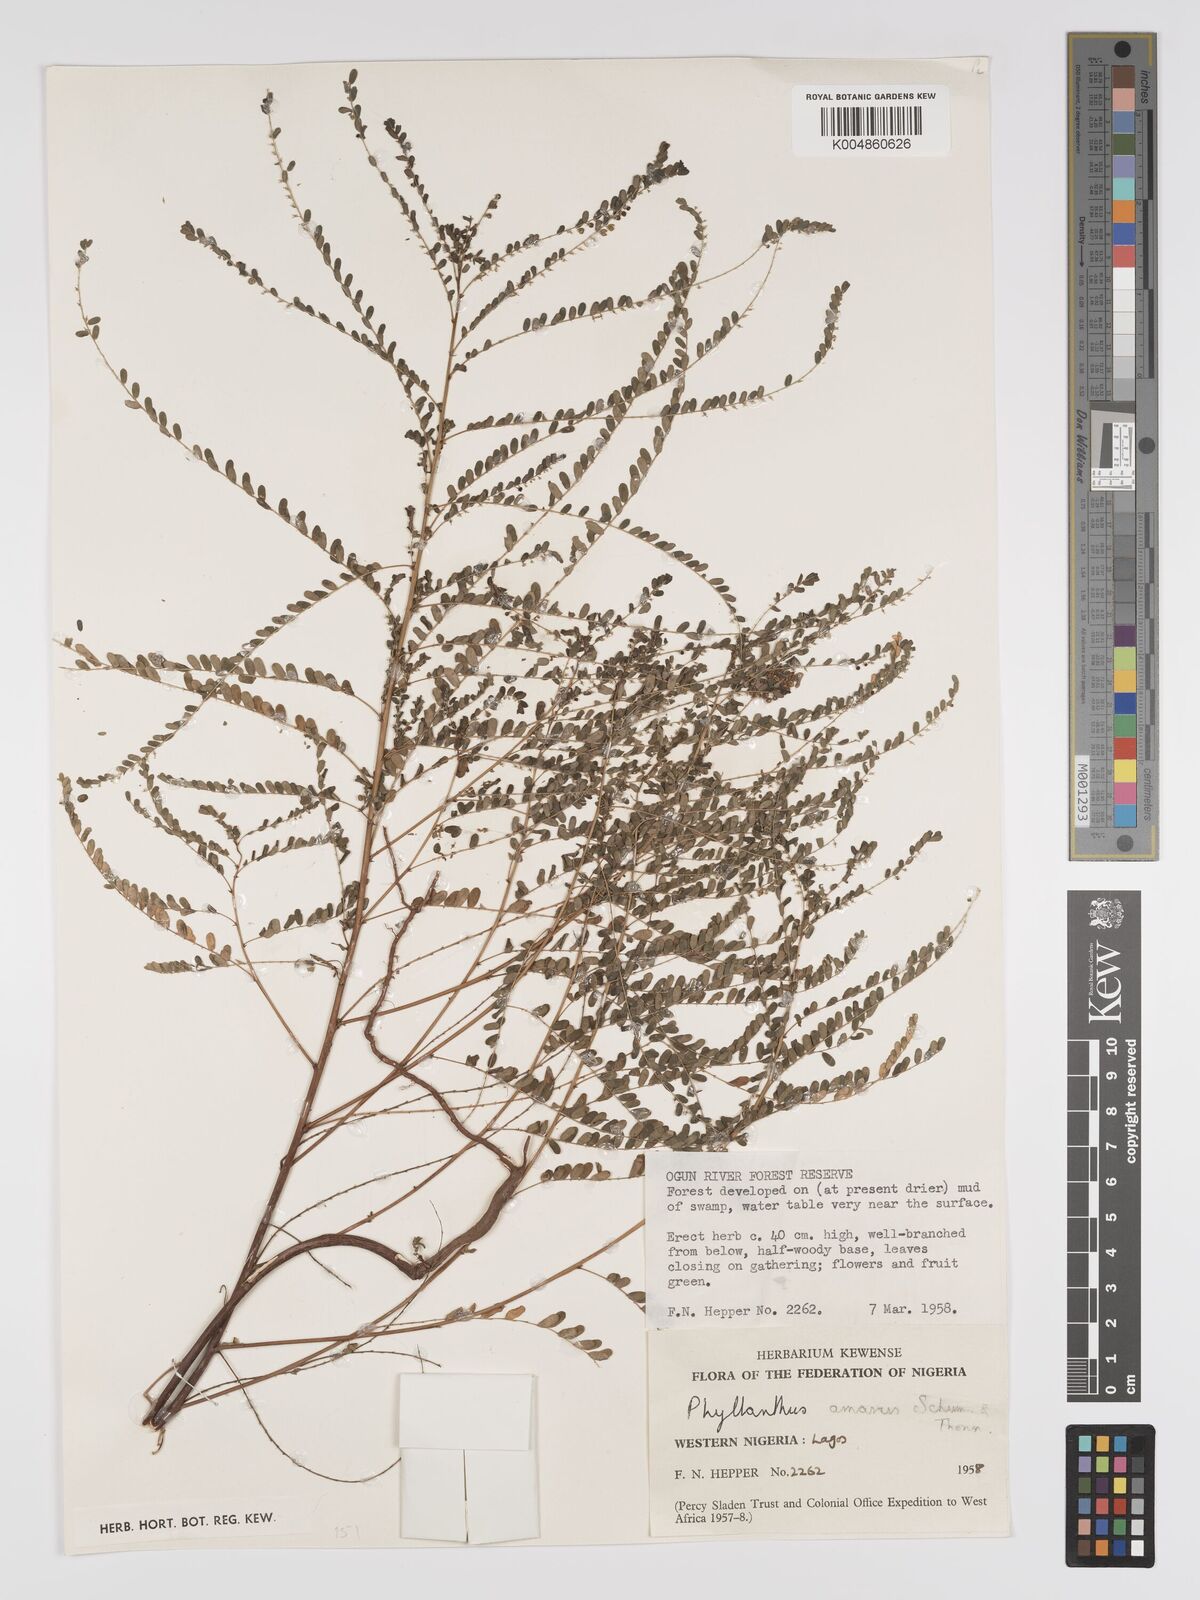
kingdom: Plantae
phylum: Tracheophyta
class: Magnoliopsida
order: Malpighiales
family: Phyllanthaceae
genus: Phyllanthus
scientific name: Phyllanthus amarus
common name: Carry me seed
